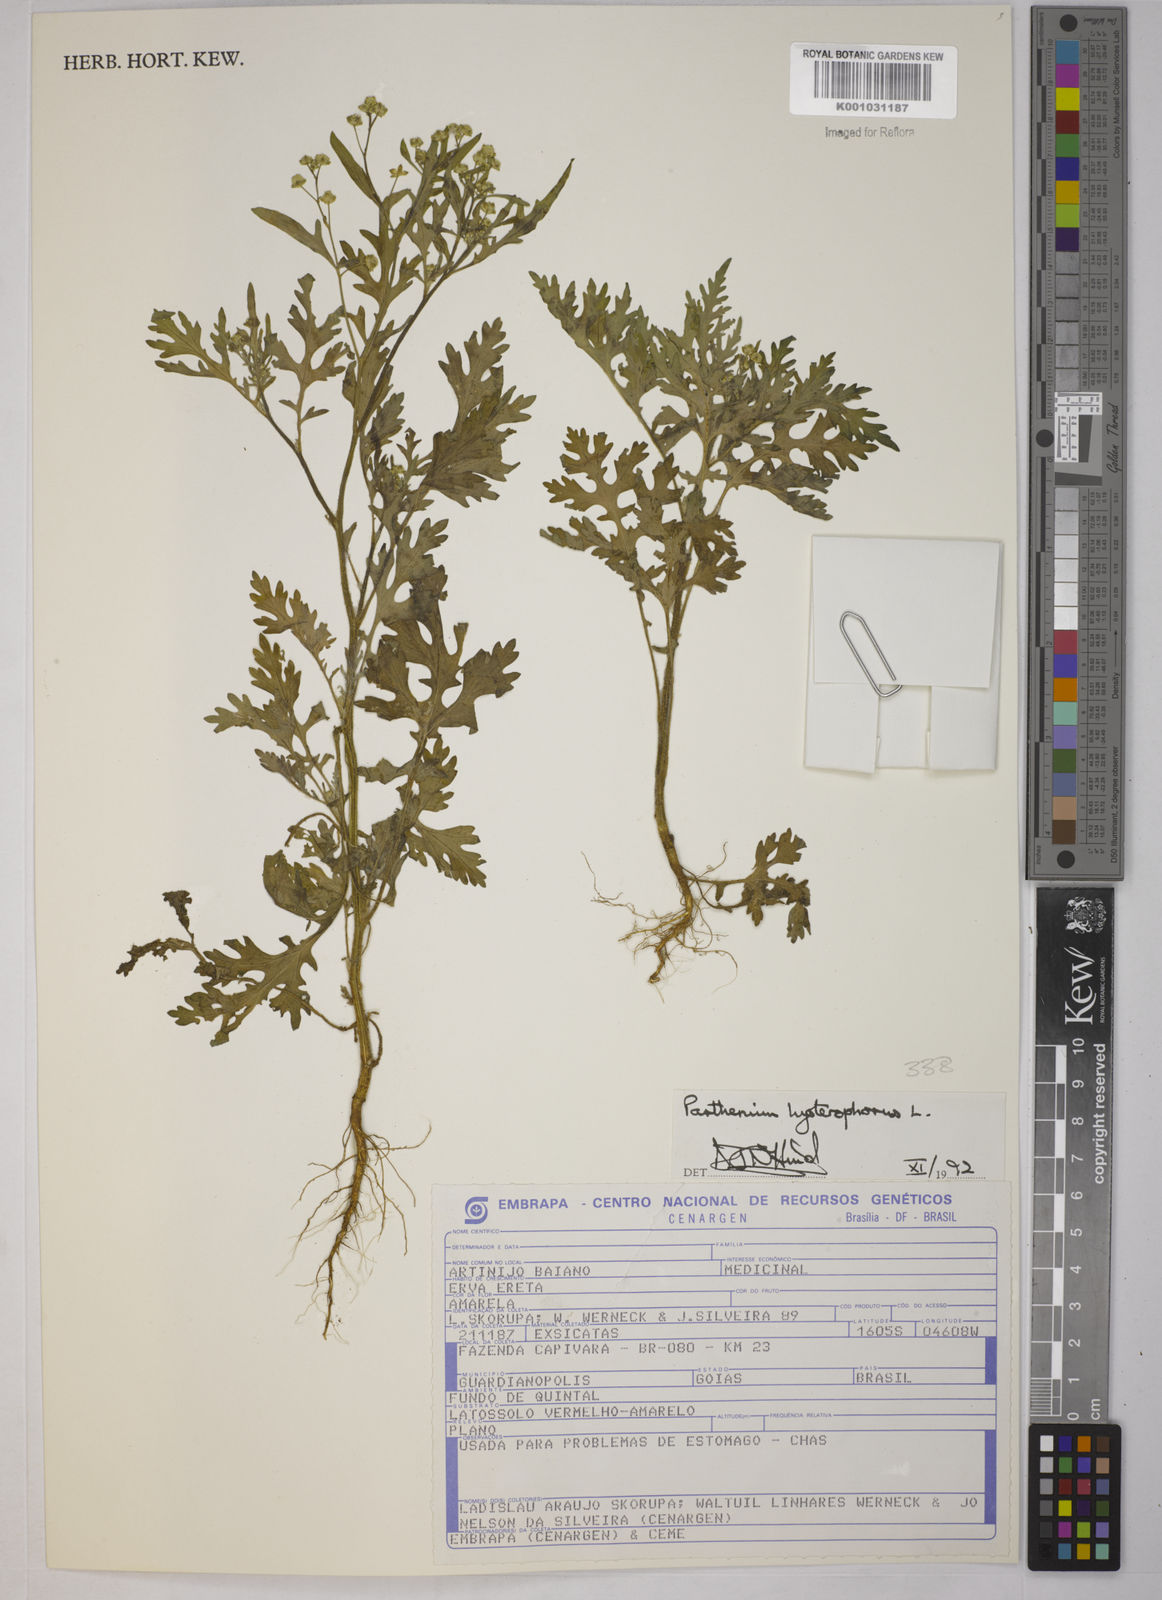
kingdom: Plantae
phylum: Tracheophyta
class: Magnoliopsida
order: Asterales
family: Asteraceae
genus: Parthenium
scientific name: Parthenium hysterophorus
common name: Santa maria feverfew
